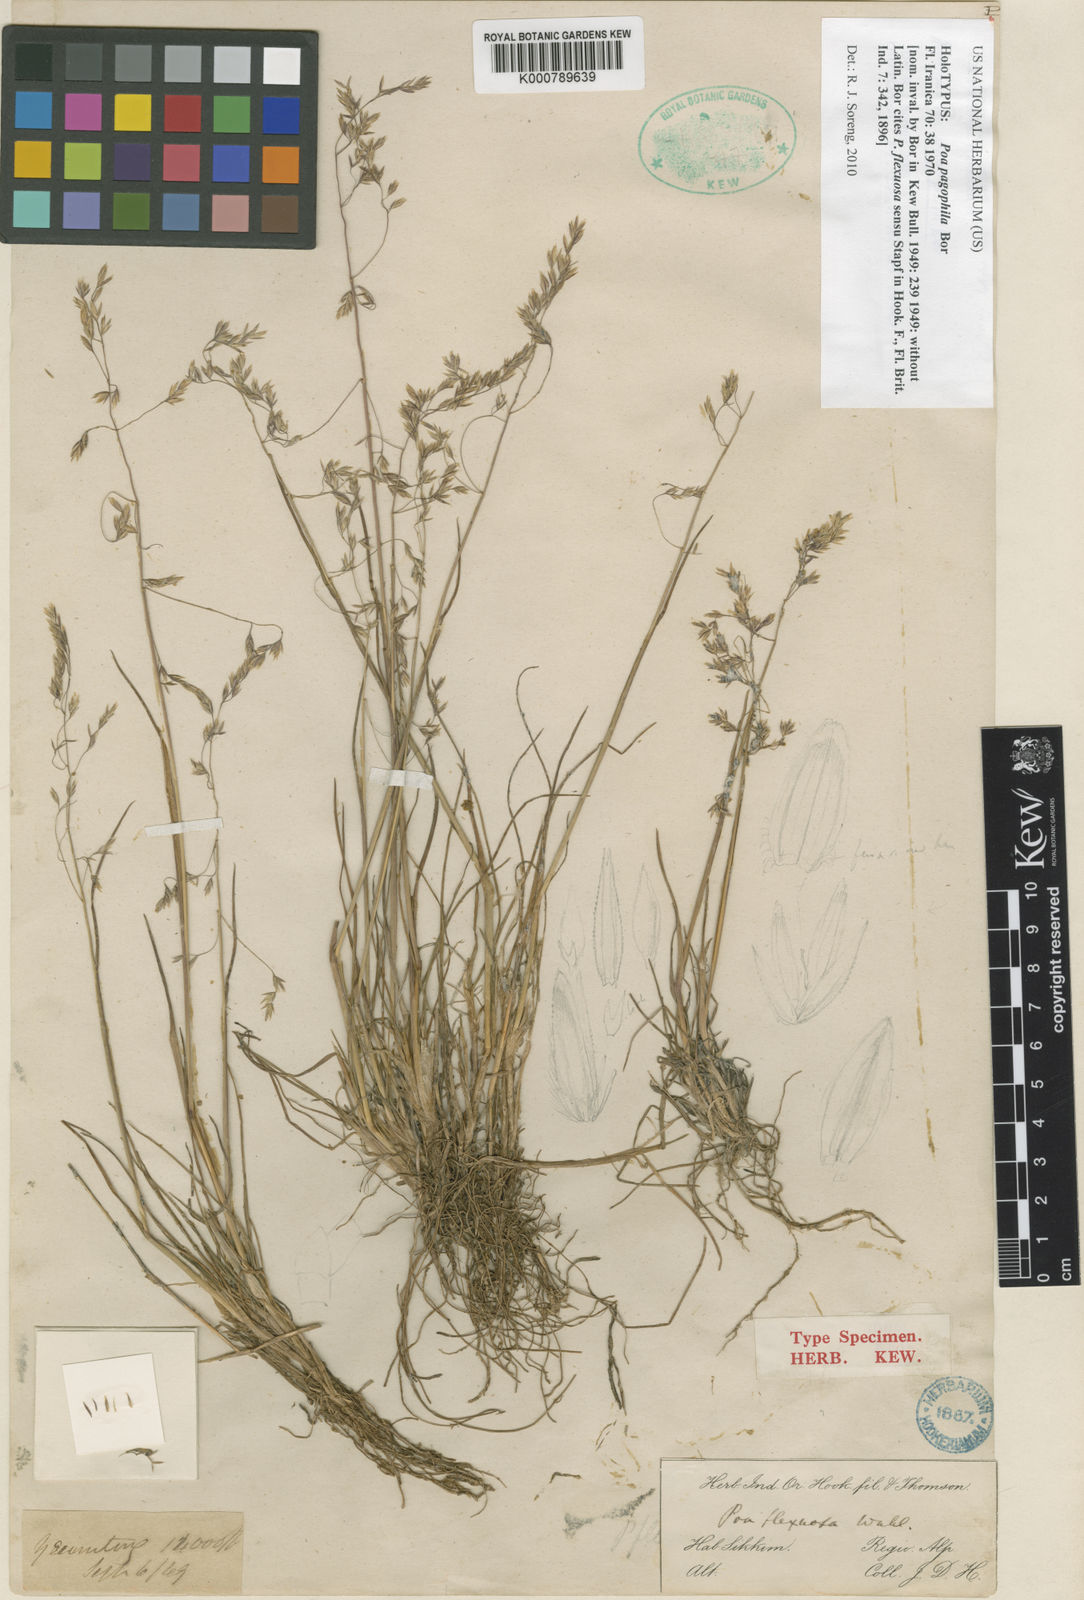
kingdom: Plantae
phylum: Tracheophyta
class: Liliopsida
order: Poales
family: Poaceae
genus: Poa
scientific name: Poa pagophila
